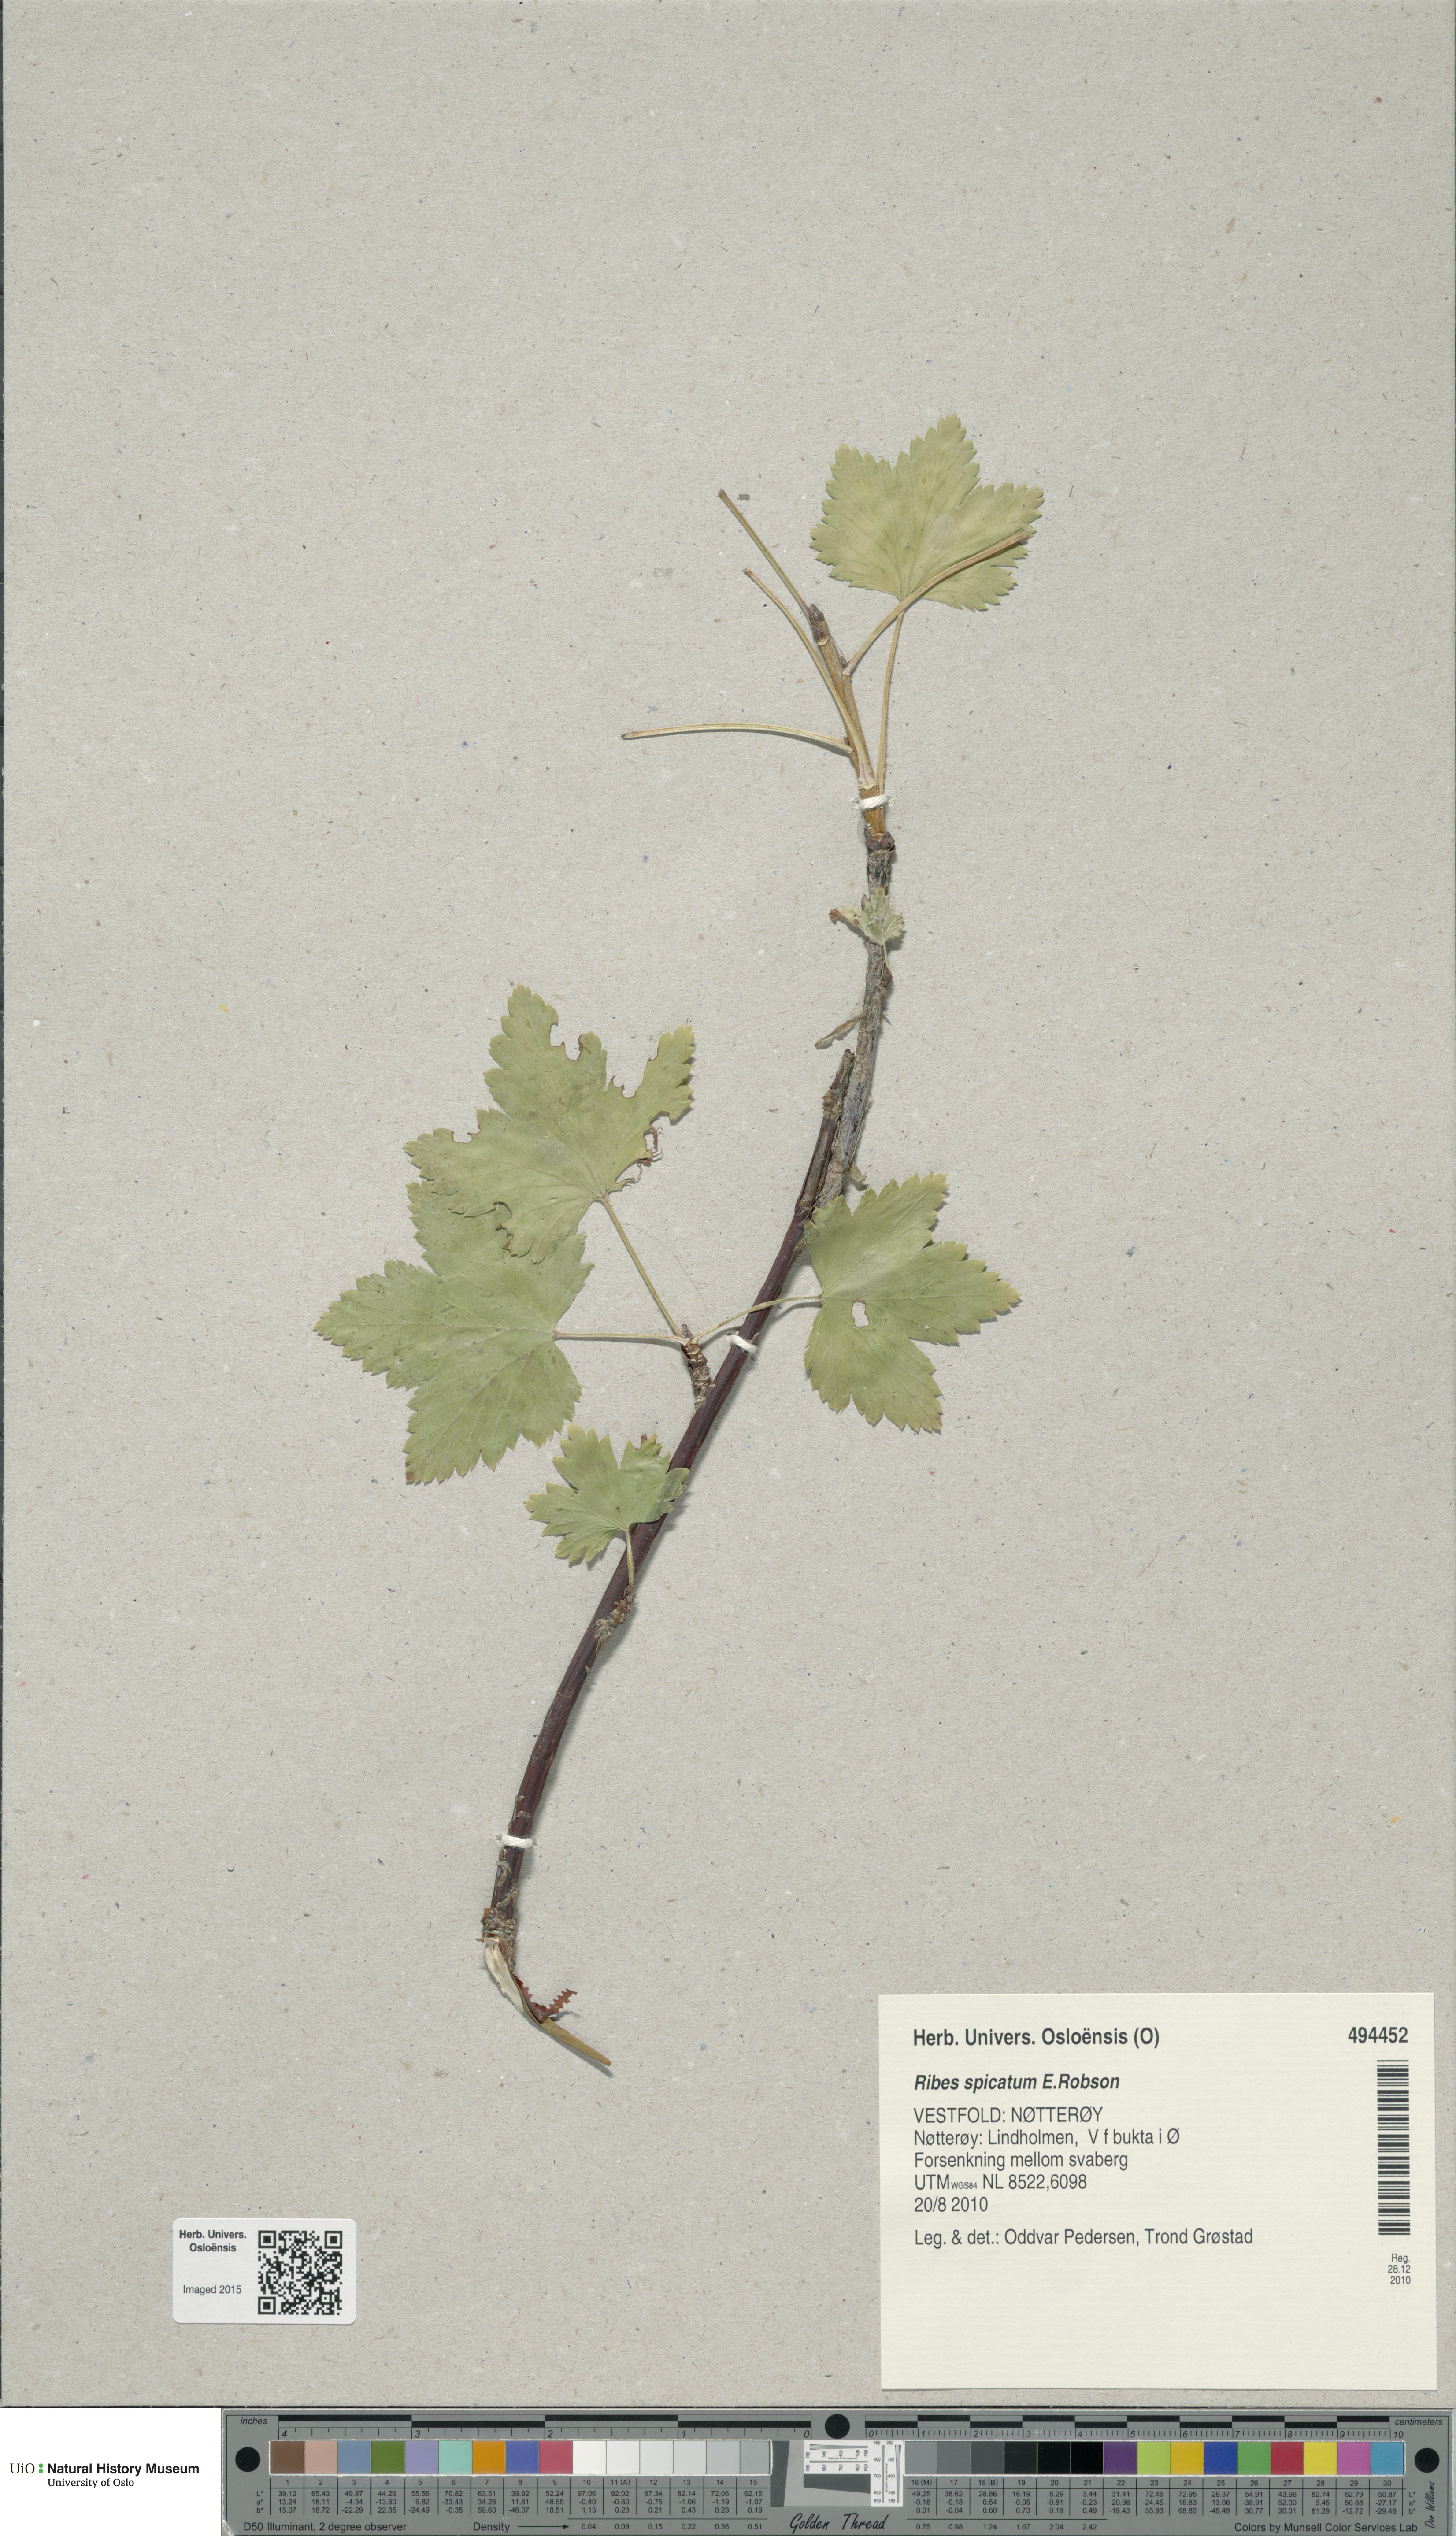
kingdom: Plantae
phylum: Tracheophyta
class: Magnoliopsida
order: Saxifragales
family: Grossulariaceae
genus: Ribes
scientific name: Ribes spicatum
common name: Downy currant
